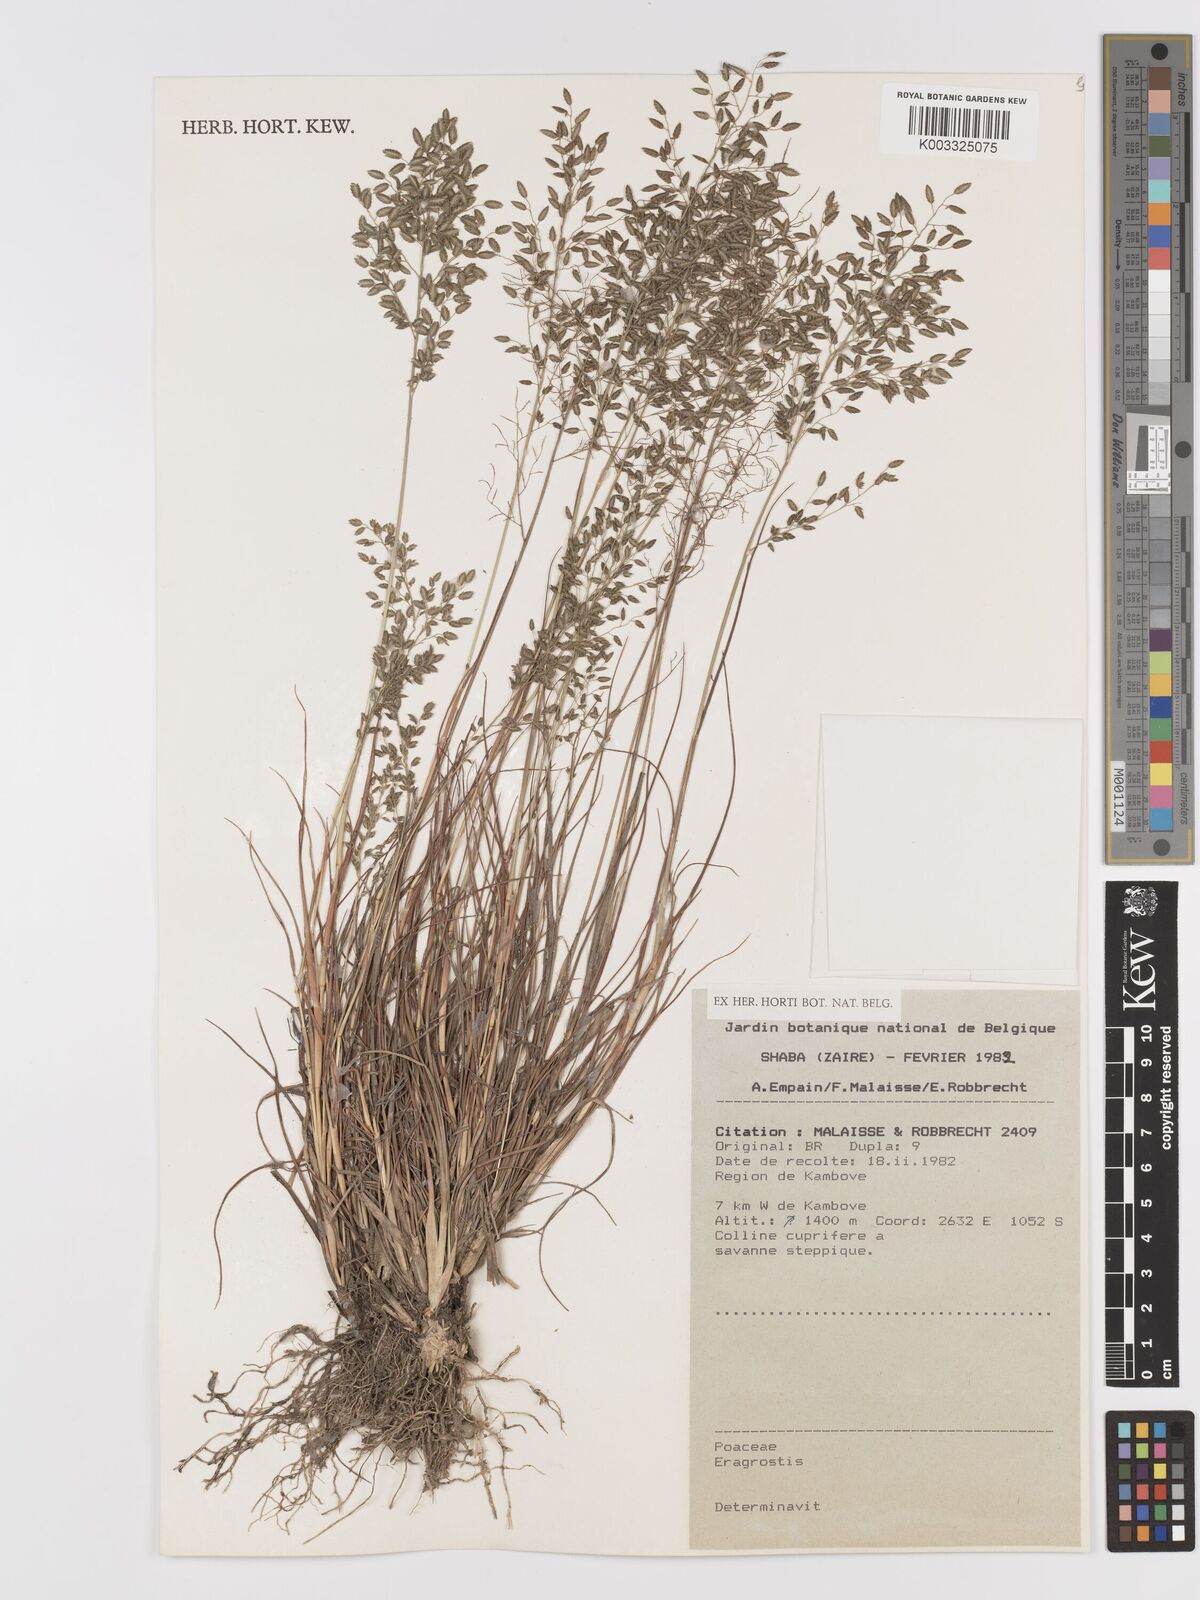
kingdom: Plantae
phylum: Tracheophyta
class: Liliopsida
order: Poales
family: Poaceae
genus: Eragrostis
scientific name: Eragrostis
